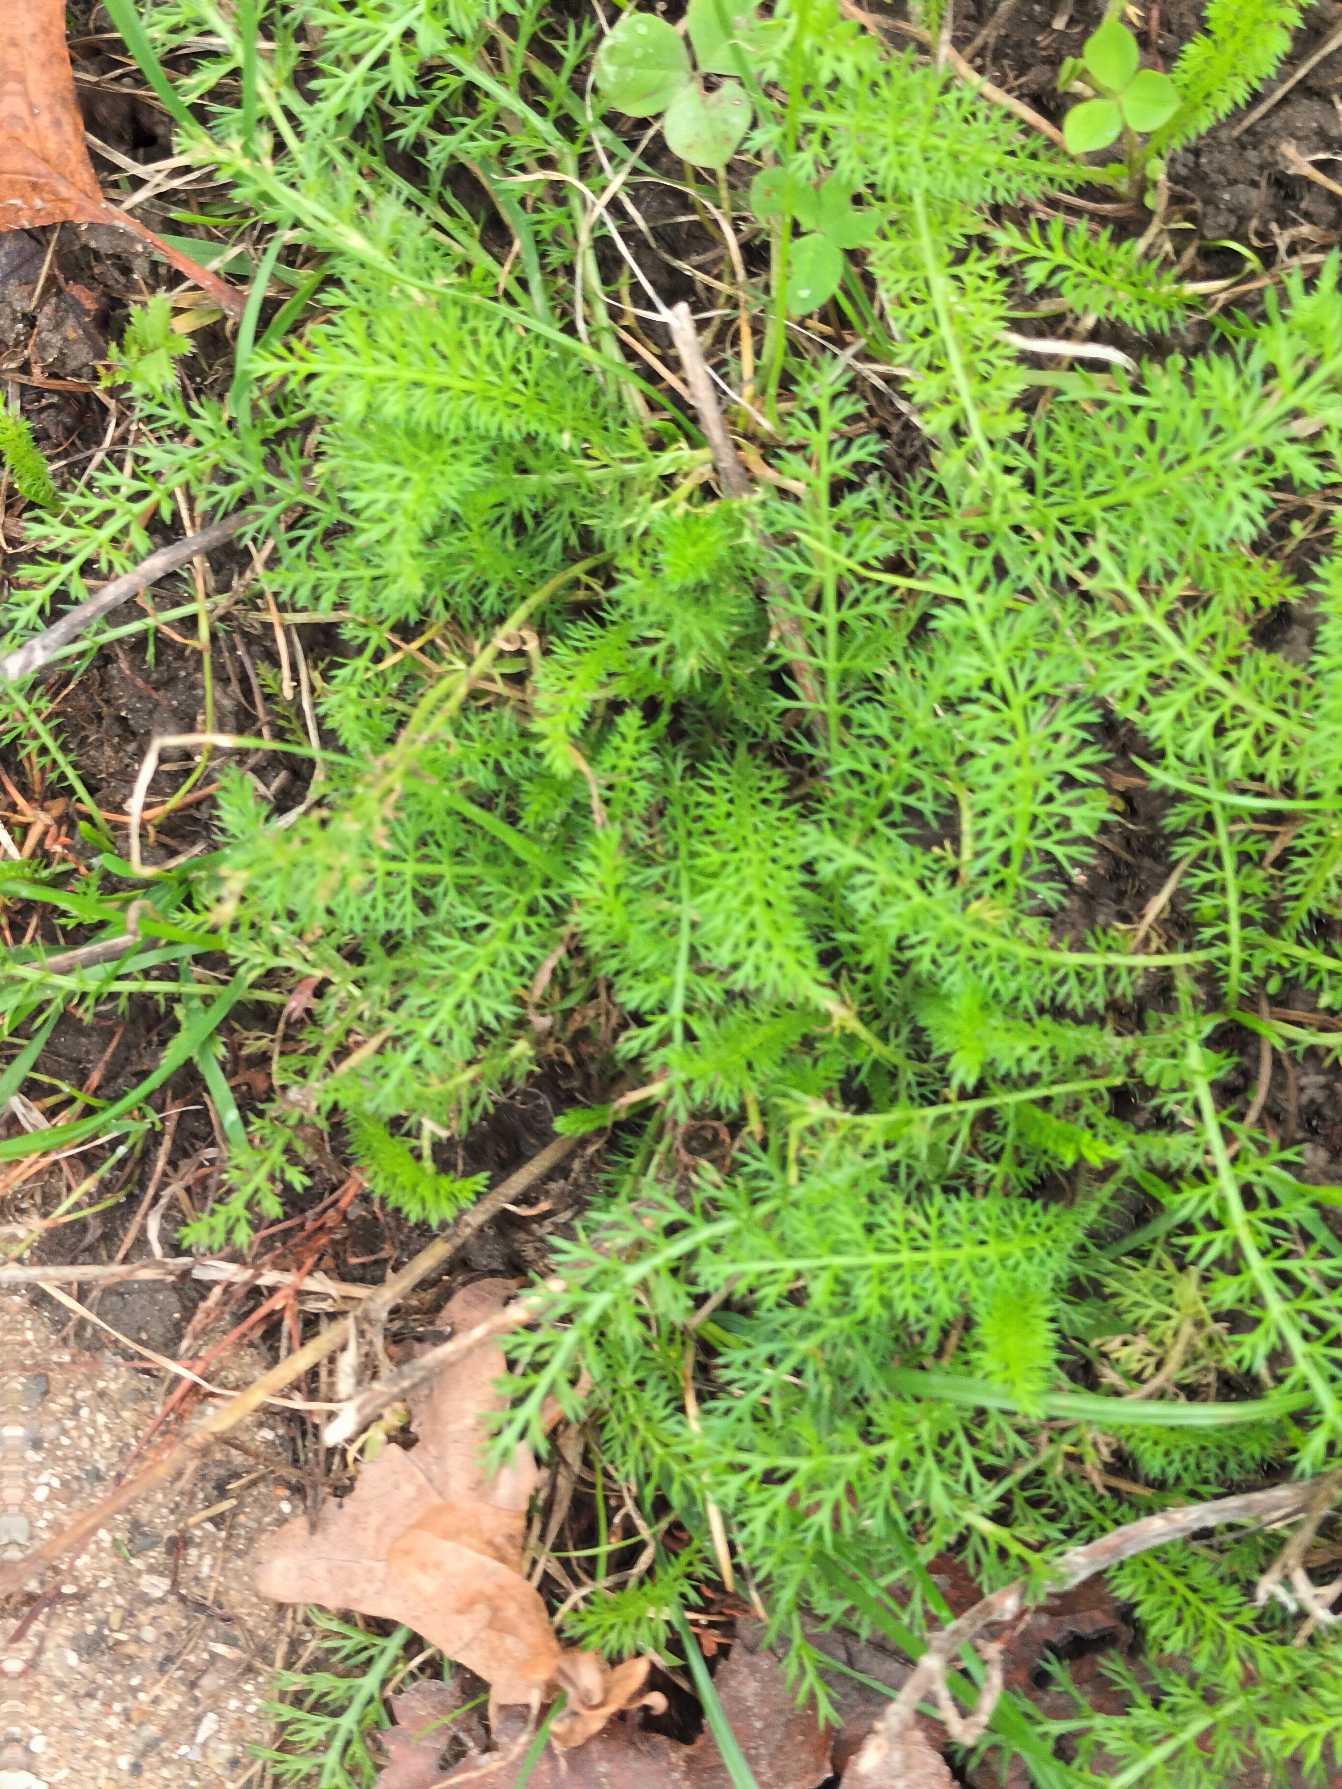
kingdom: Plantae
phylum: Tracheophyta
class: Magnoliopsida
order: Asterales
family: Asteraceae
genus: Achillea
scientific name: Achillea millefolium
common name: Almindelig røllike
